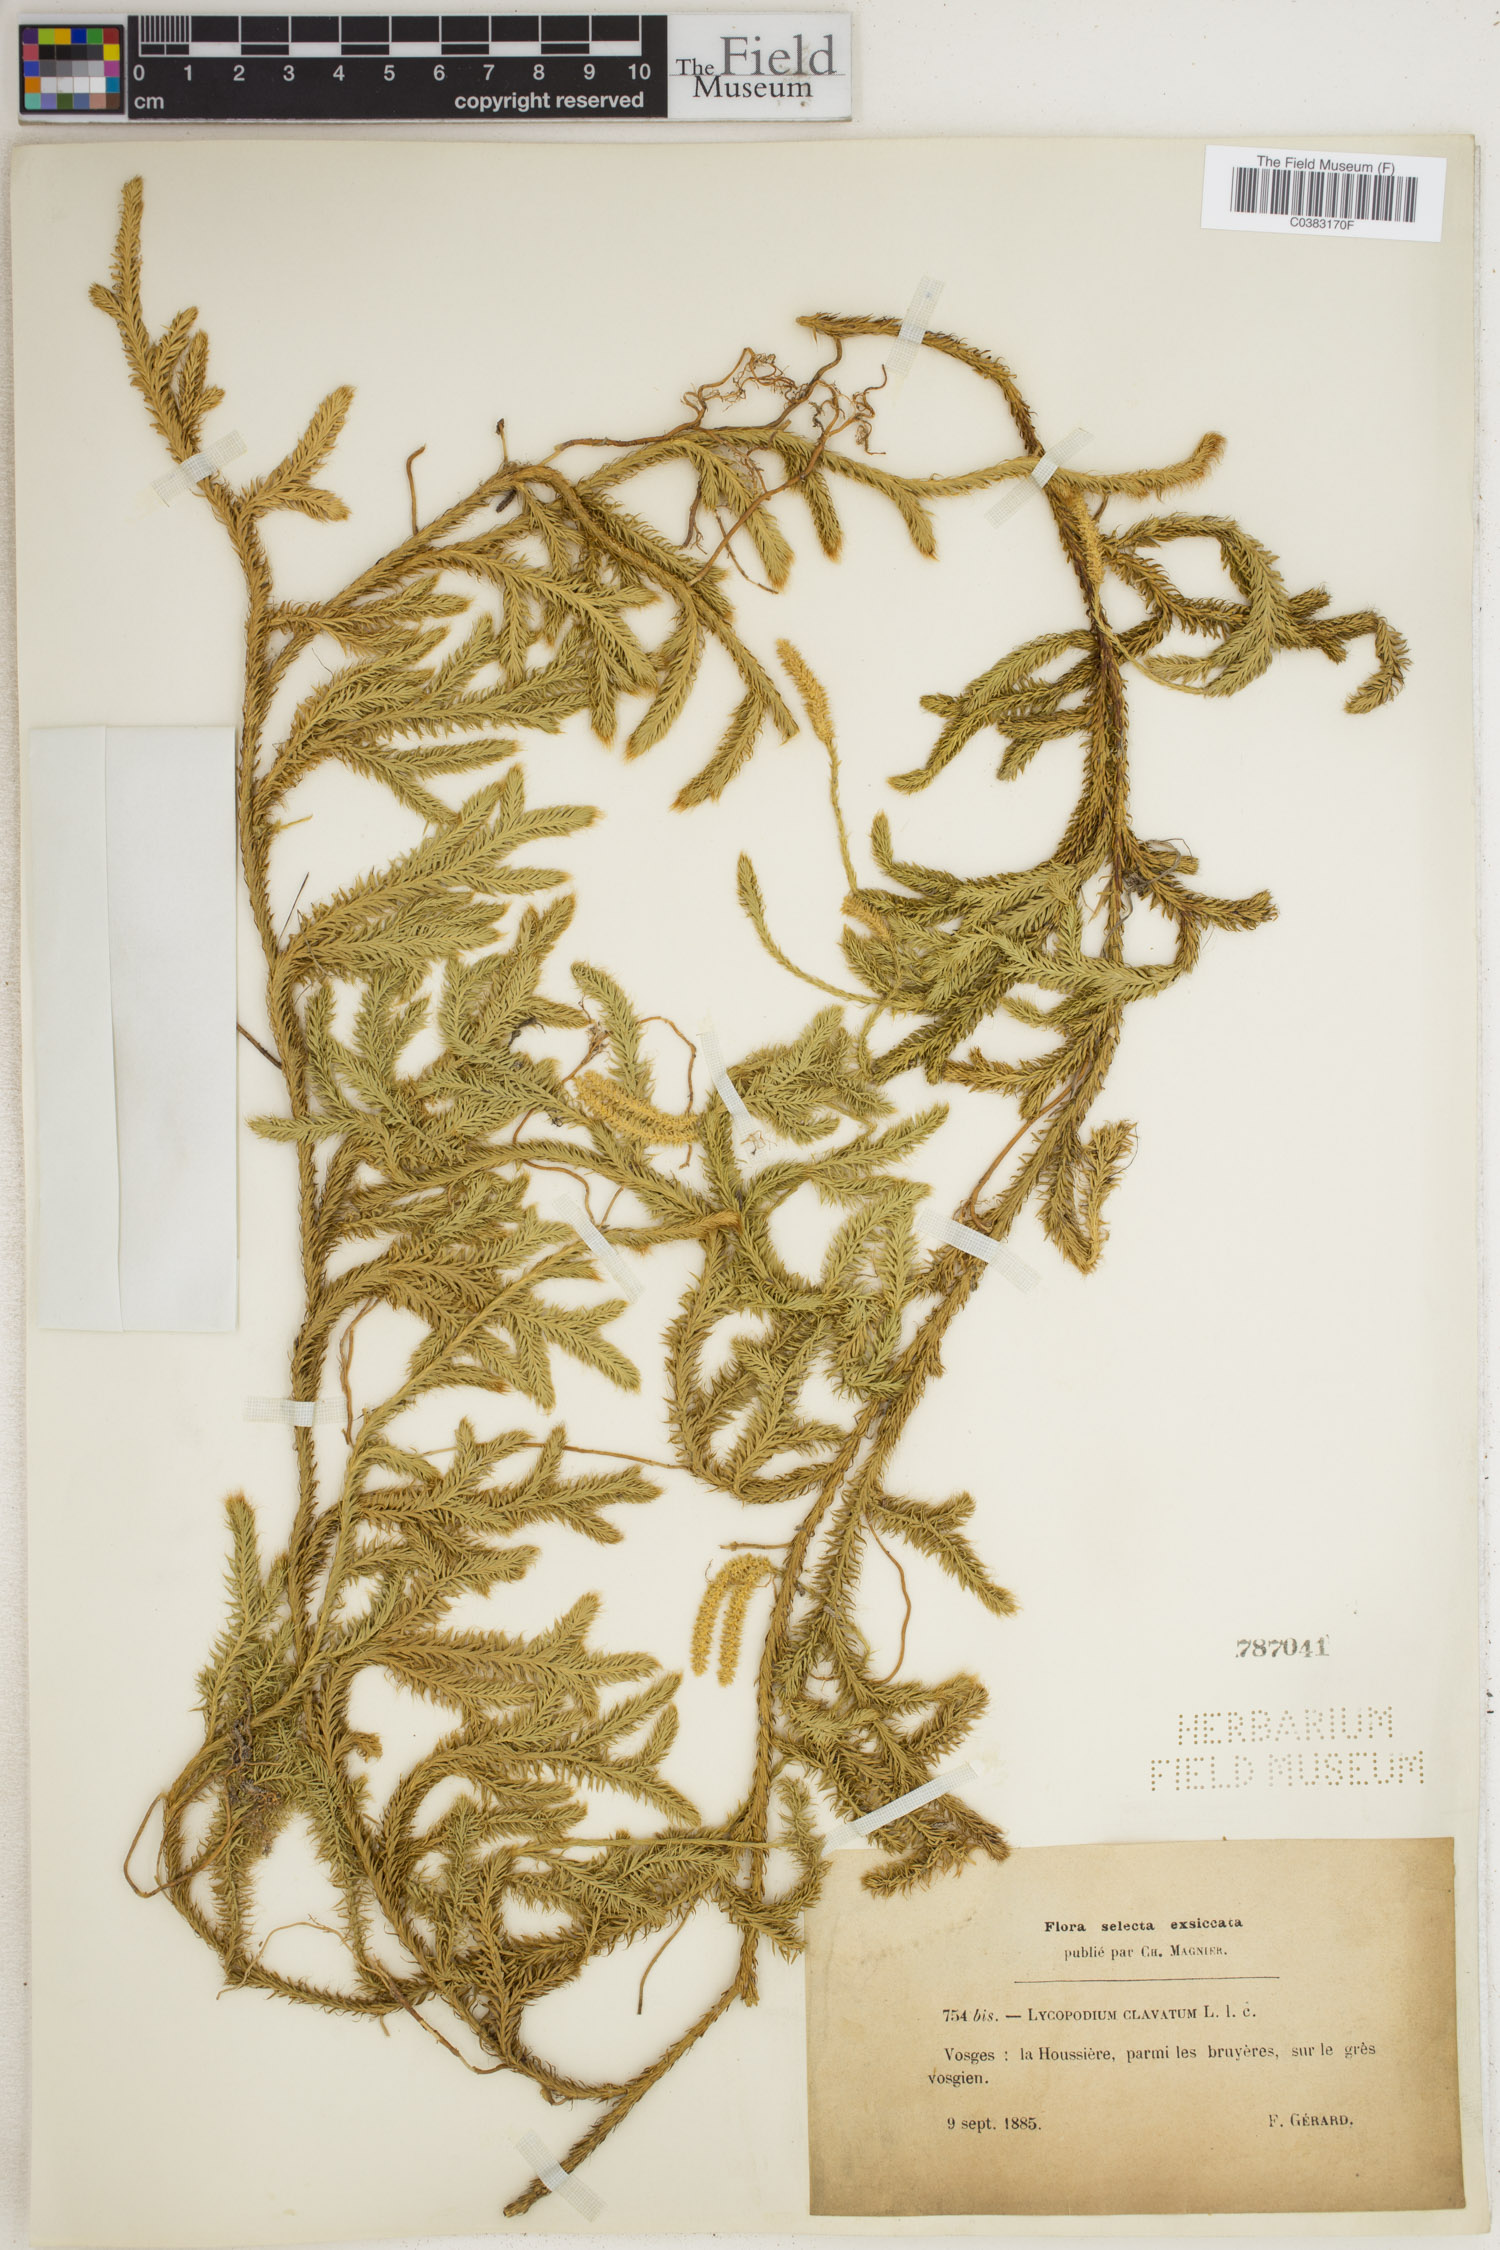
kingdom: Plantae
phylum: Tracheophyta
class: Lycopodiopsida
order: Lycopodiales
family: Lycopodiaceae
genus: Lycopodium
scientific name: Lycopodium clavatum
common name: Stag's-horn clubmoss
